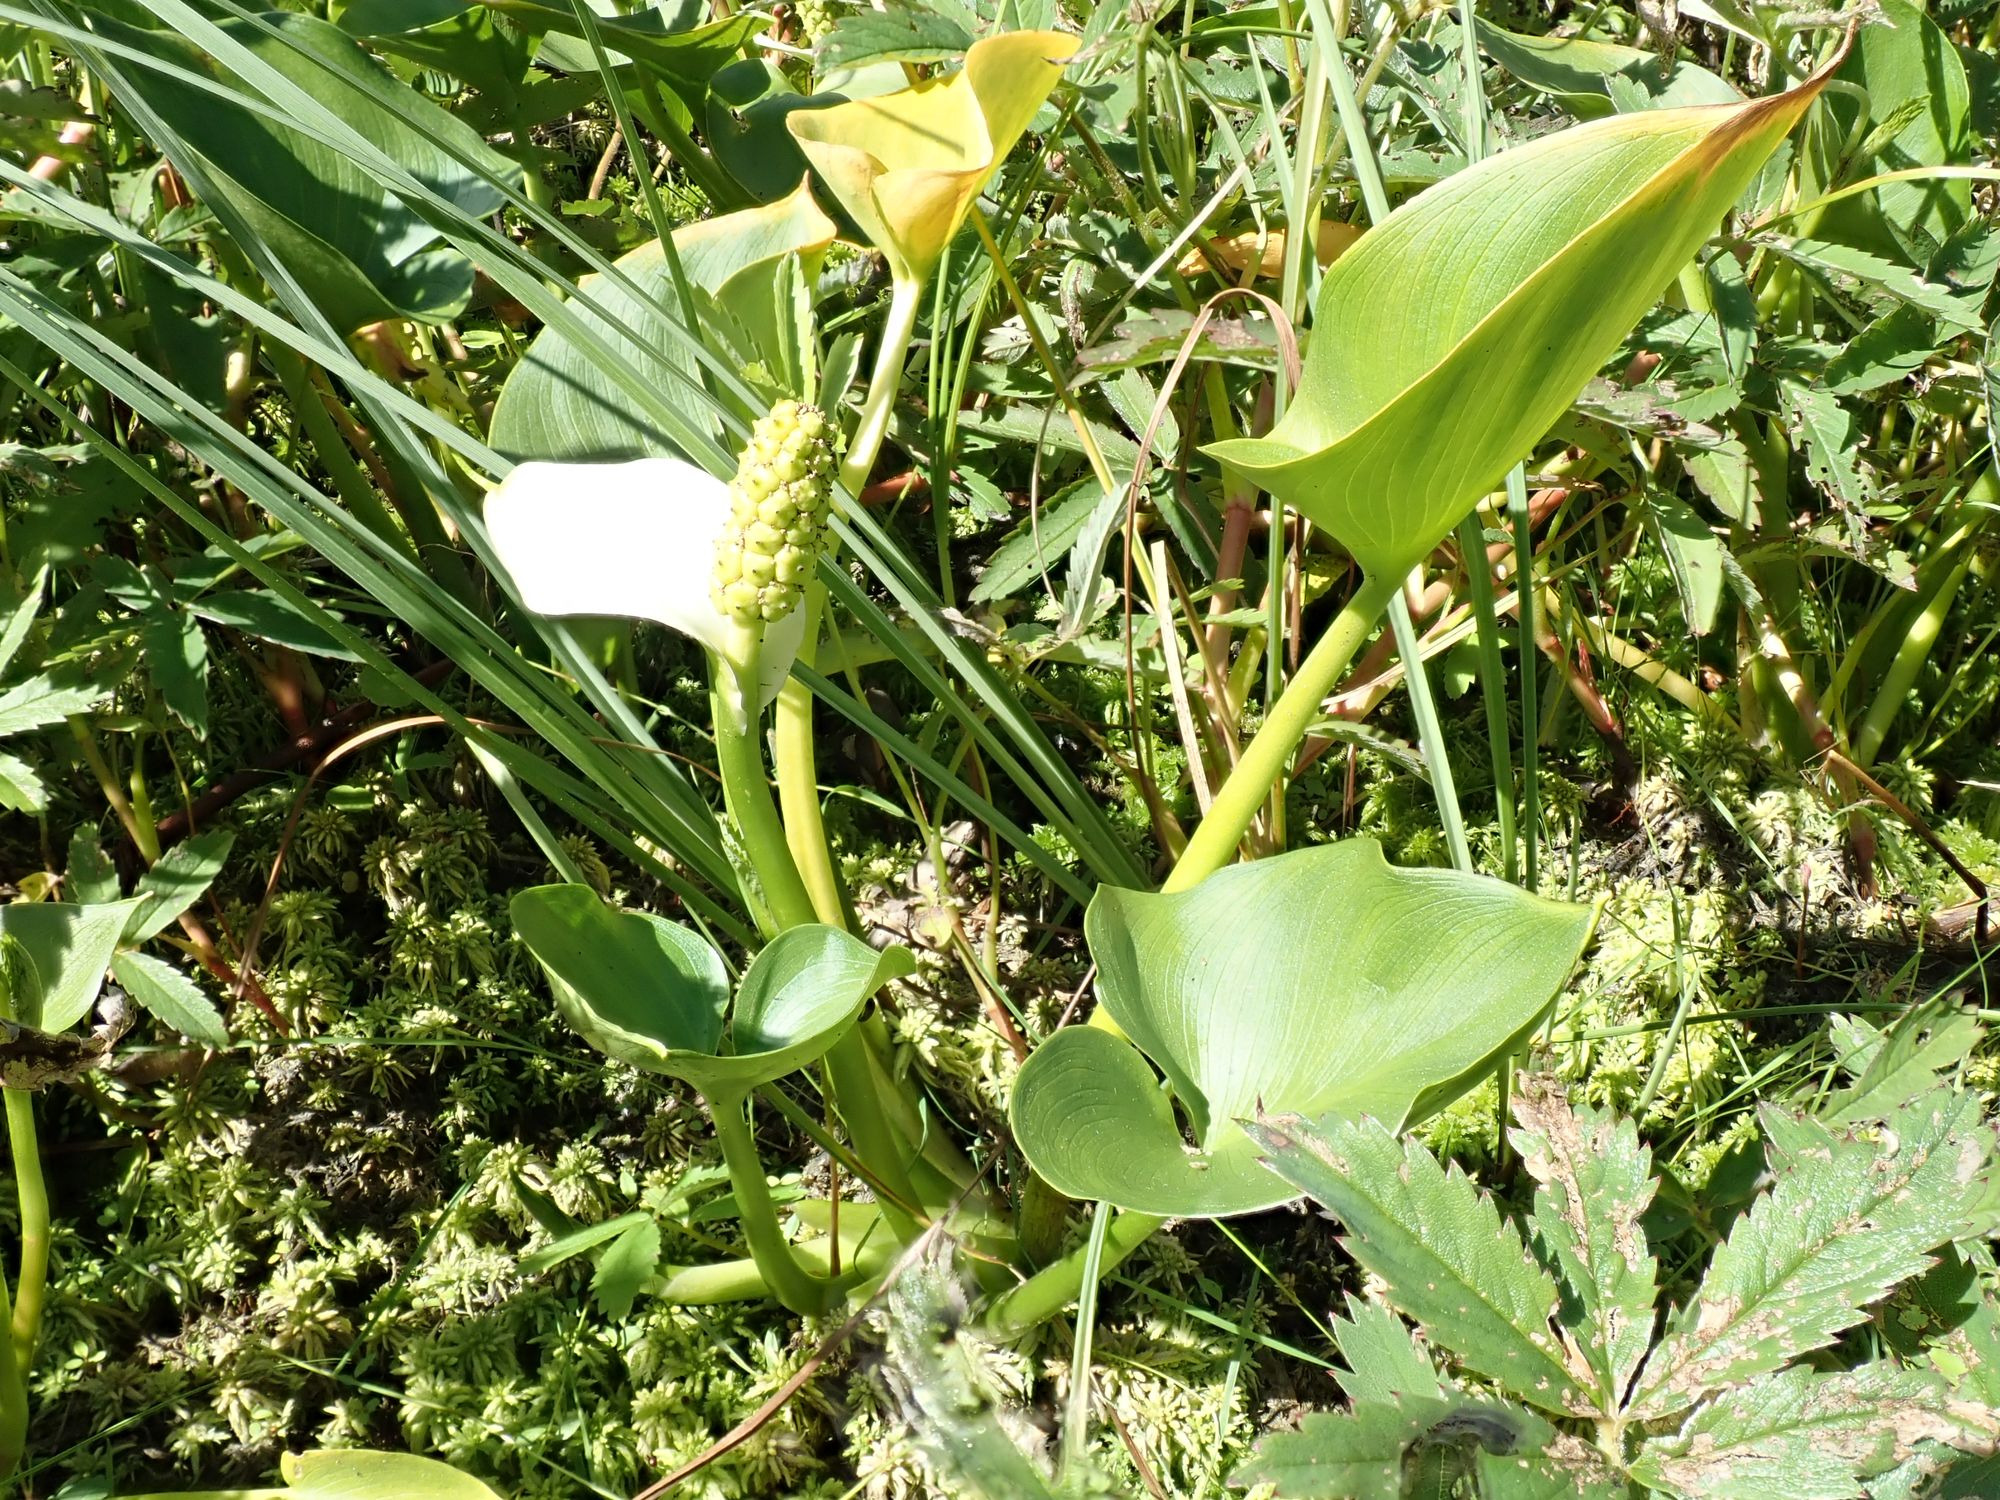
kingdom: Plantae
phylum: Tracheophyta
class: Liliopsida
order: Alismatales
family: Araceae
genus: Calla
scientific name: Calla palustris
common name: Kærmysse
